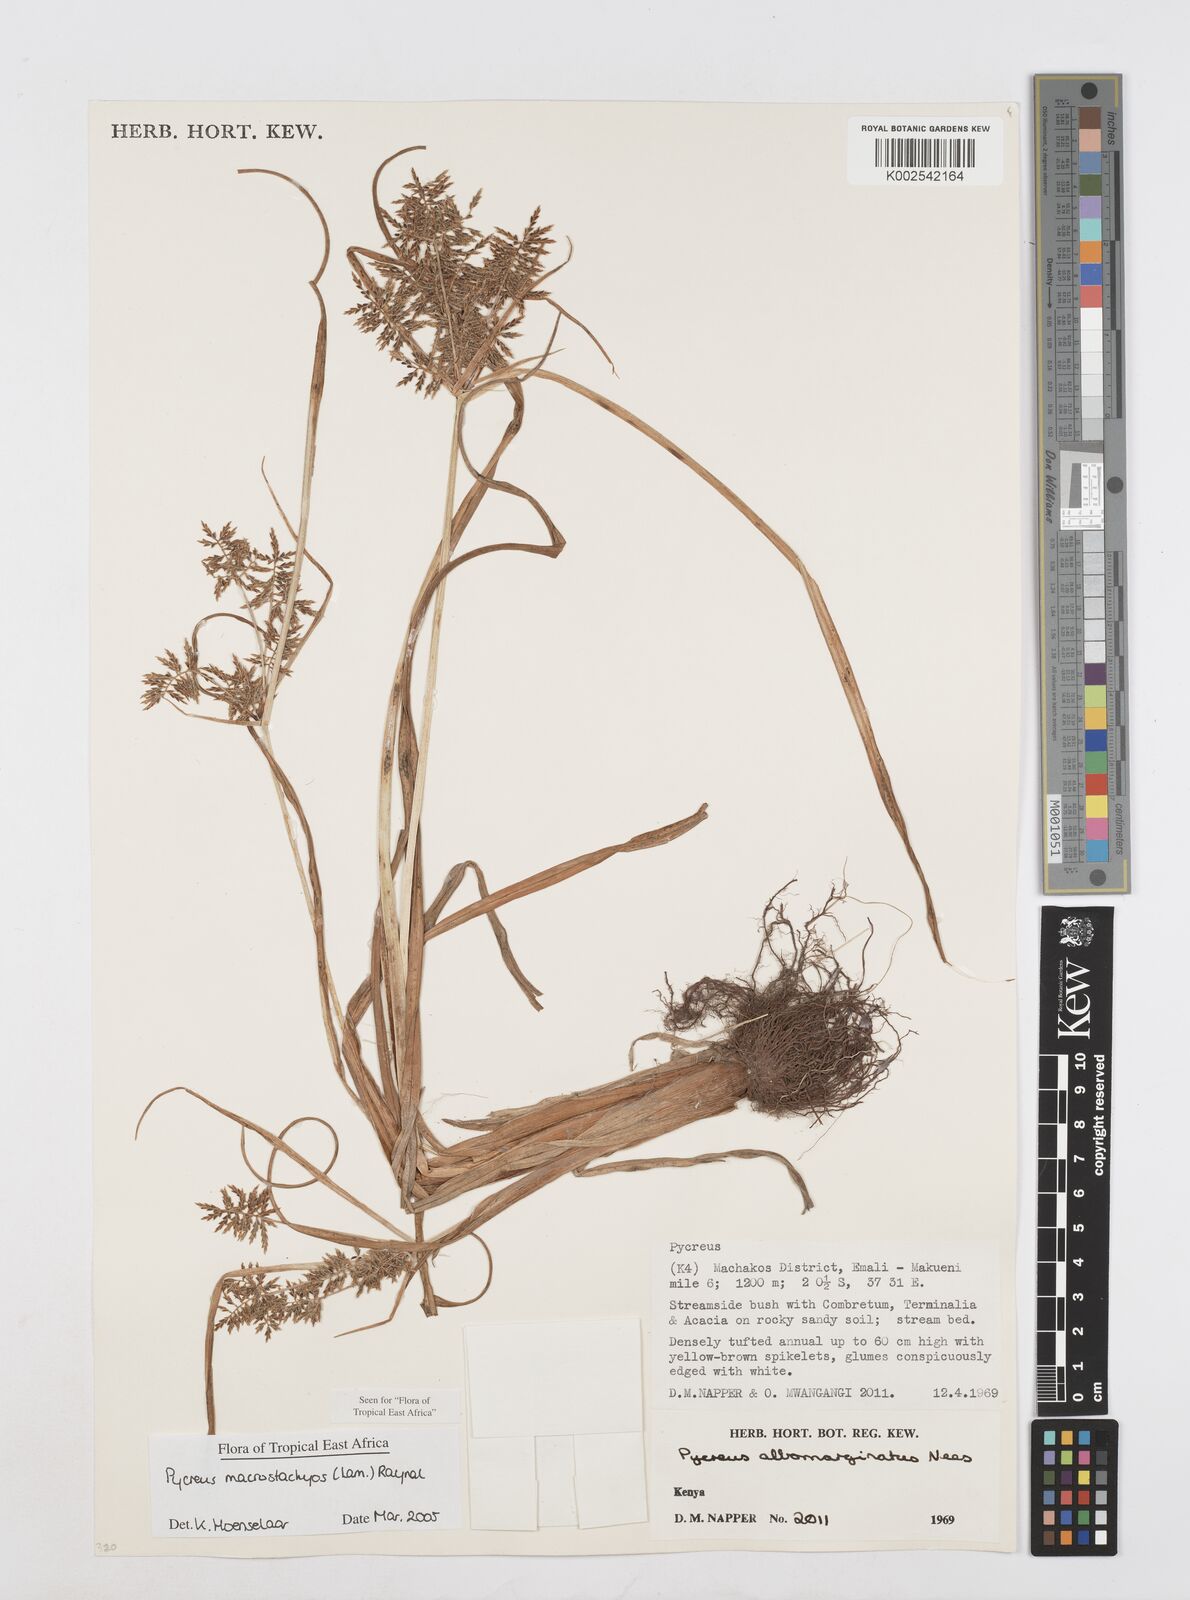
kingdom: Plantae
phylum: Tracheophyta
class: Liliopsida
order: Poales
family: Cyperaceae
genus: Cyperus
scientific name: Cyperus macrostachyos
